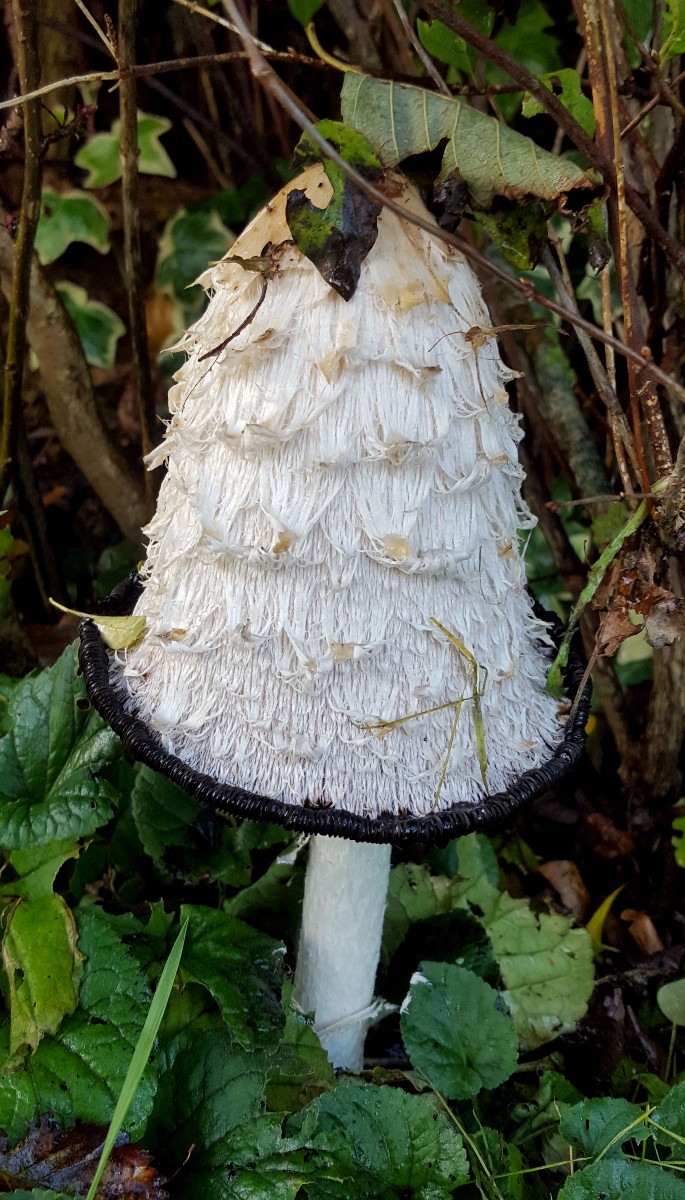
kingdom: Fungi
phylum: Basidiomycota
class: Agaricomycetes
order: Agaricales
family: Agaricaceae
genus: Coprinus
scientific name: Coprinus comatus
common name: stor parykhat
